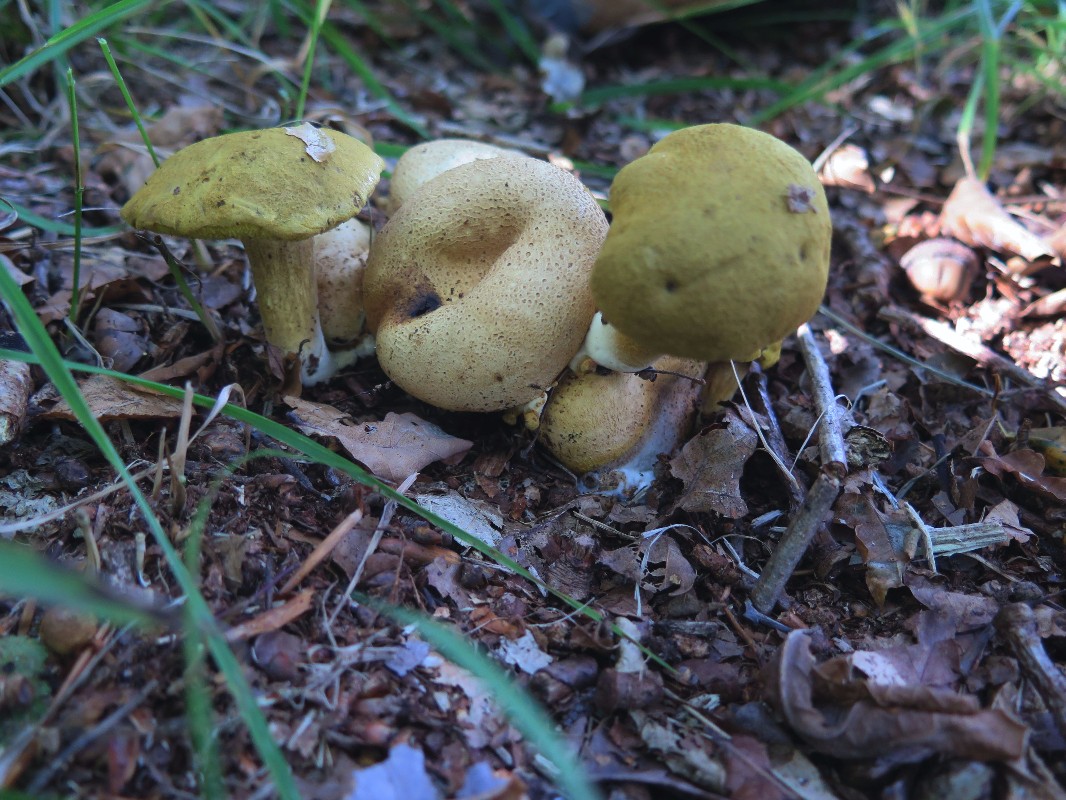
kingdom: Fungi
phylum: Basidiomycota
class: Agaricomycetes
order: Boletales
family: Boletaceae
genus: Pseudoboletus
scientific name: Pseudoboletus parasiticus
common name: snyltende rørhat
